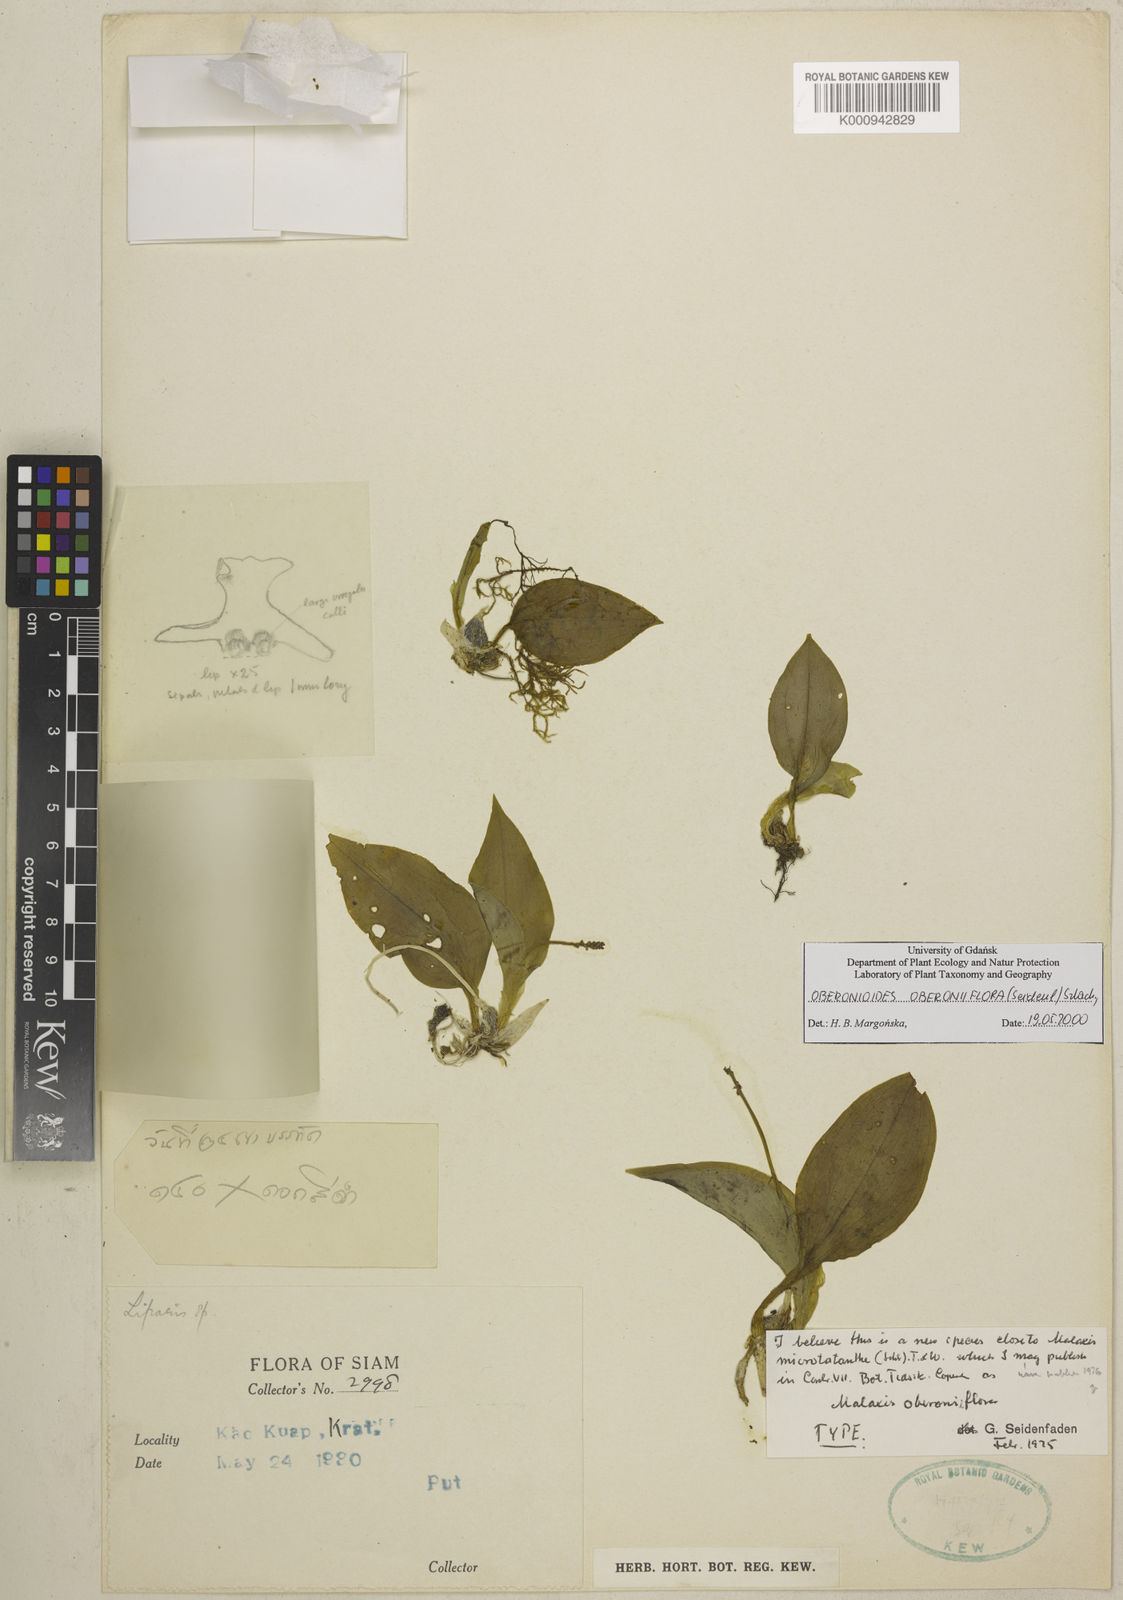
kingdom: Plantae
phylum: Tracheophyta
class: Liliopsida
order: Asparagales
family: Orchidaceae
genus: Oberonioides
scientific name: Oberonioides oberoniiflora
